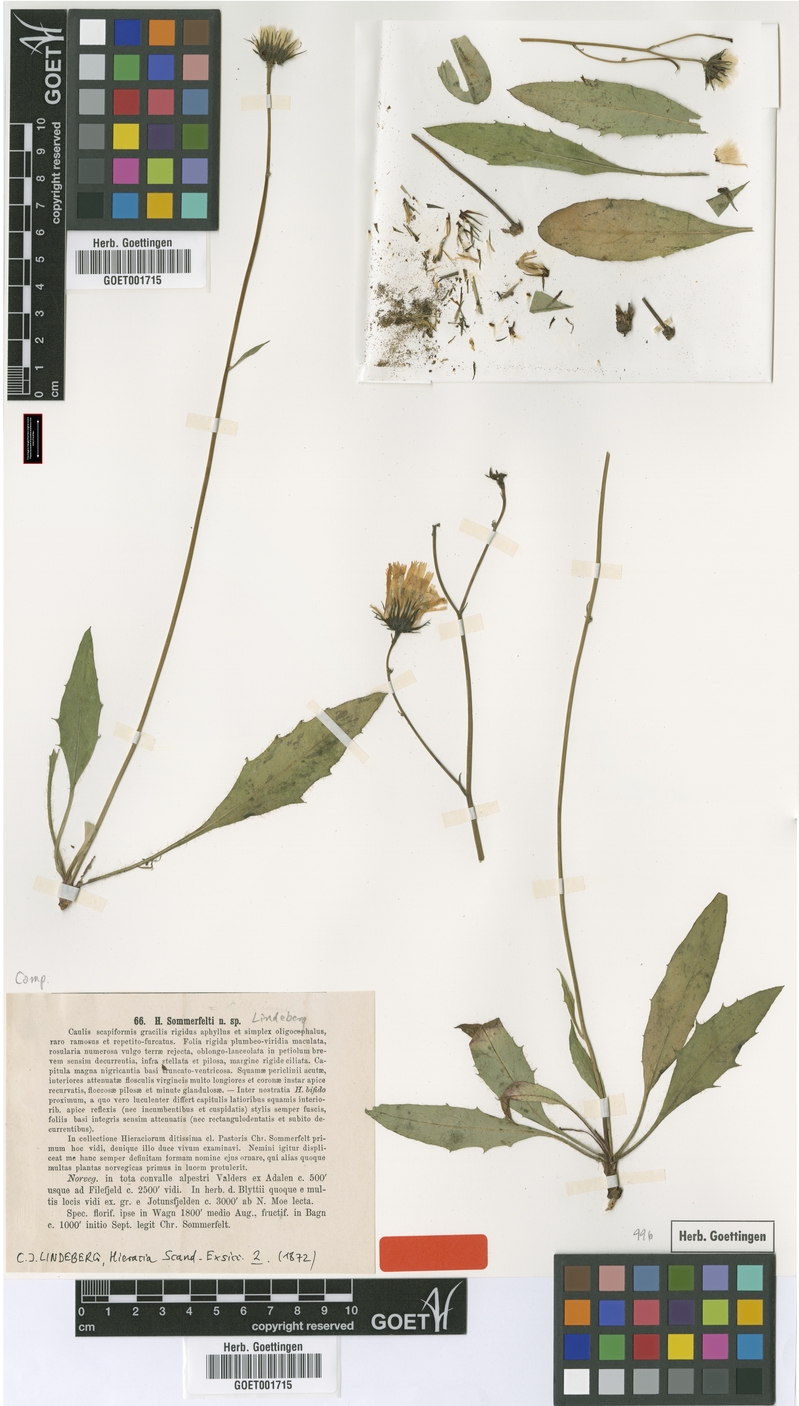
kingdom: Plantae
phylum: Tracheophyta
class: Magnoliopsida
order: Asterales
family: Asteraceae
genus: Hieracium
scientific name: Hieracium sommerfeltii
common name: Sommerfelt's hawkweed
